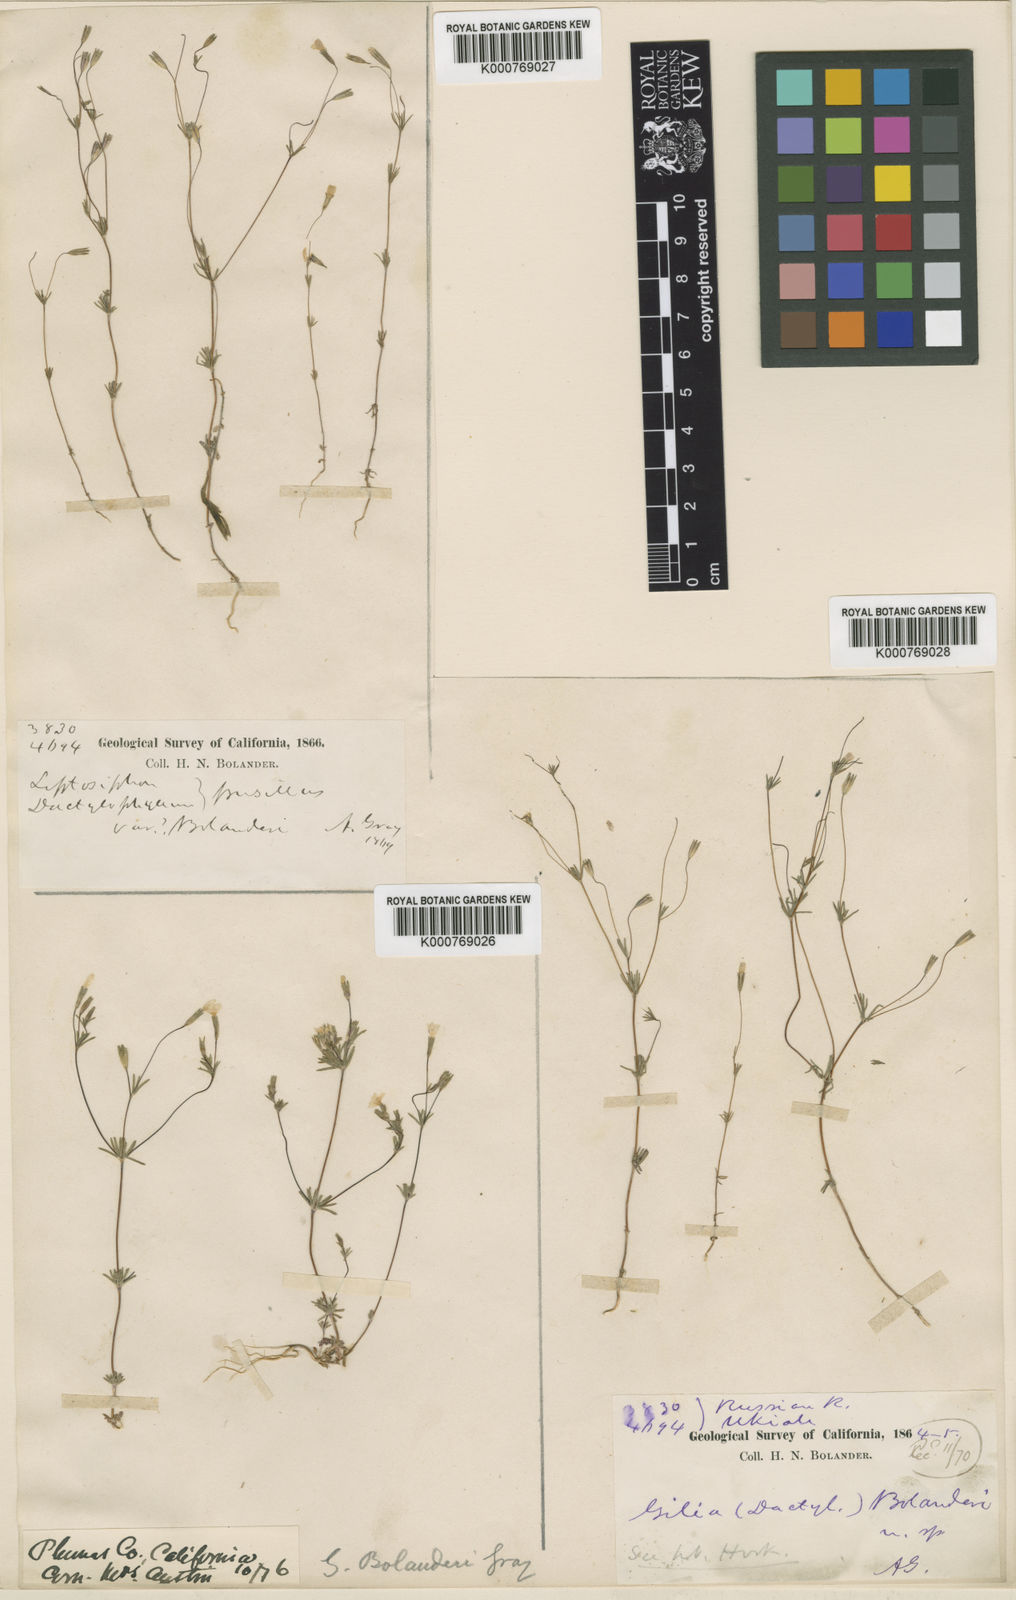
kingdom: Plantae
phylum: Tracheophyta
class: Magnoliopsida
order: Ericales
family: Polemoniaceae
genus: Leptosiphon
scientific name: Leptosiphon bolanderi
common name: Bolander's linanthus
